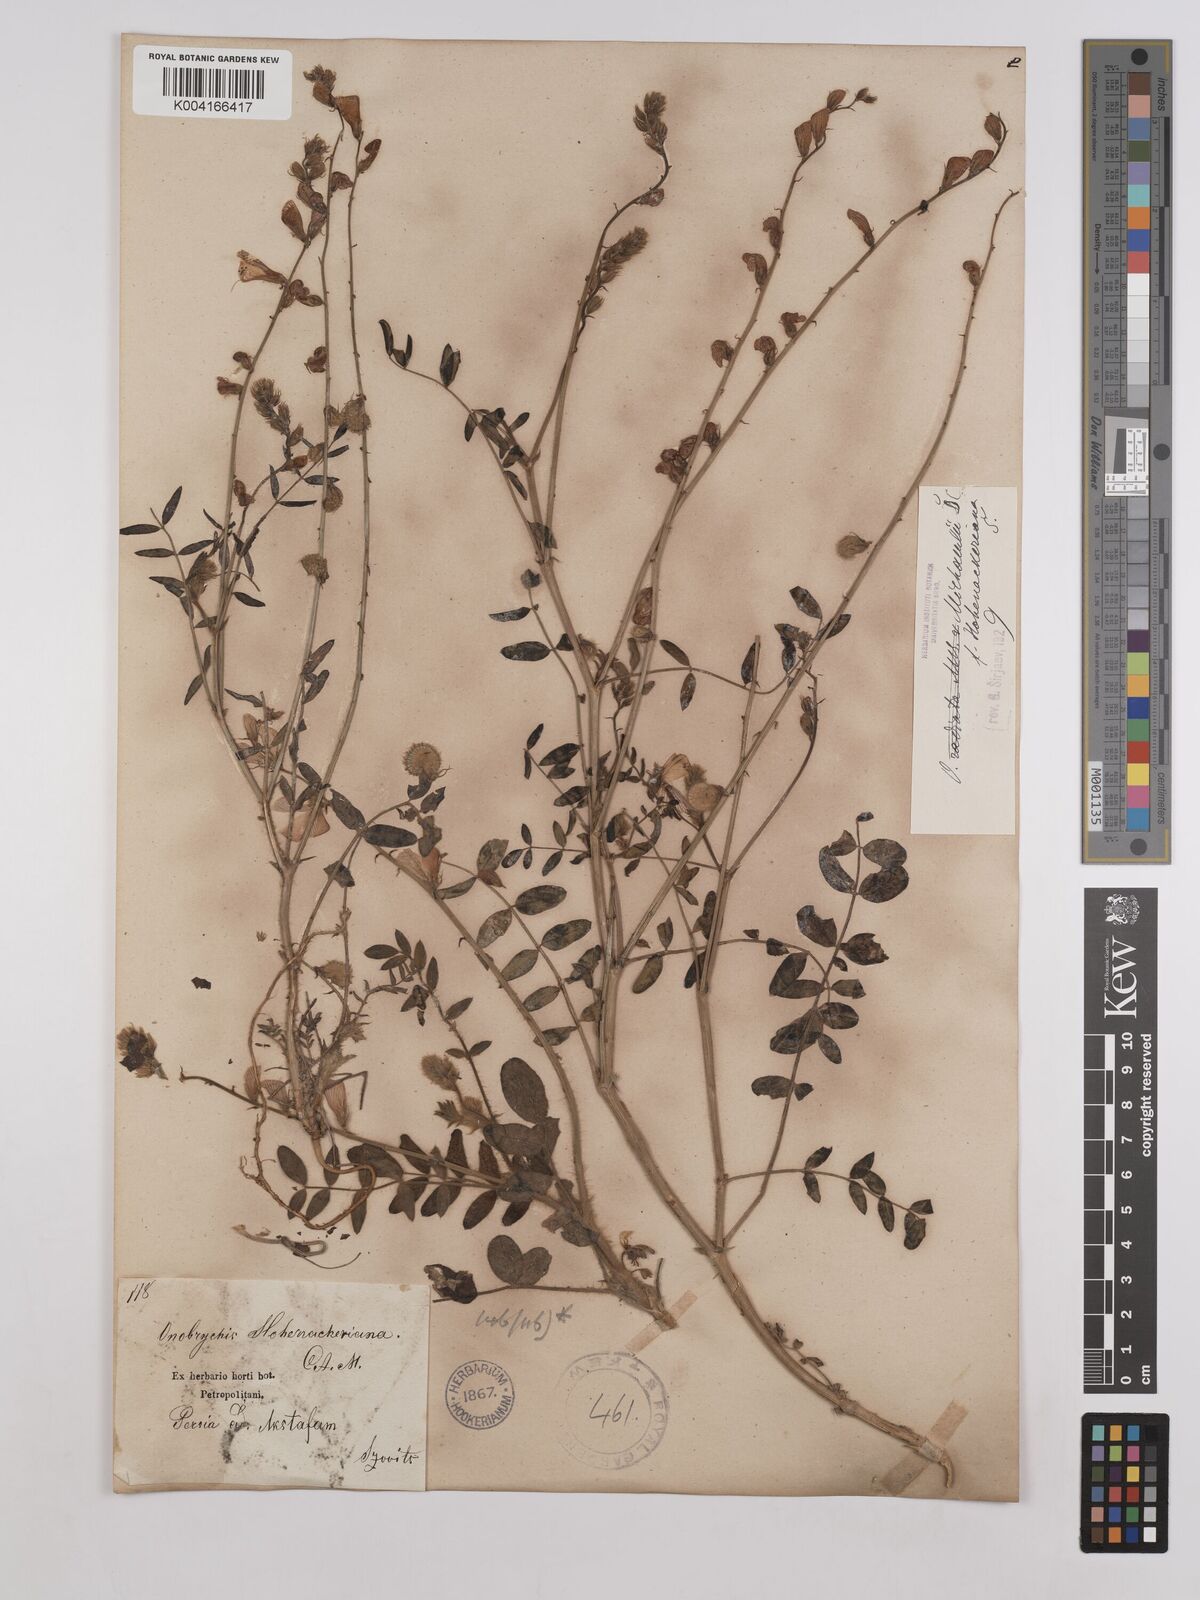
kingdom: Plantae
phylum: Tracheophyta
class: Magnoliopsida
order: Fabales
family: Fabaceae
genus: Onobrychis
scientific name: Onobrychis
